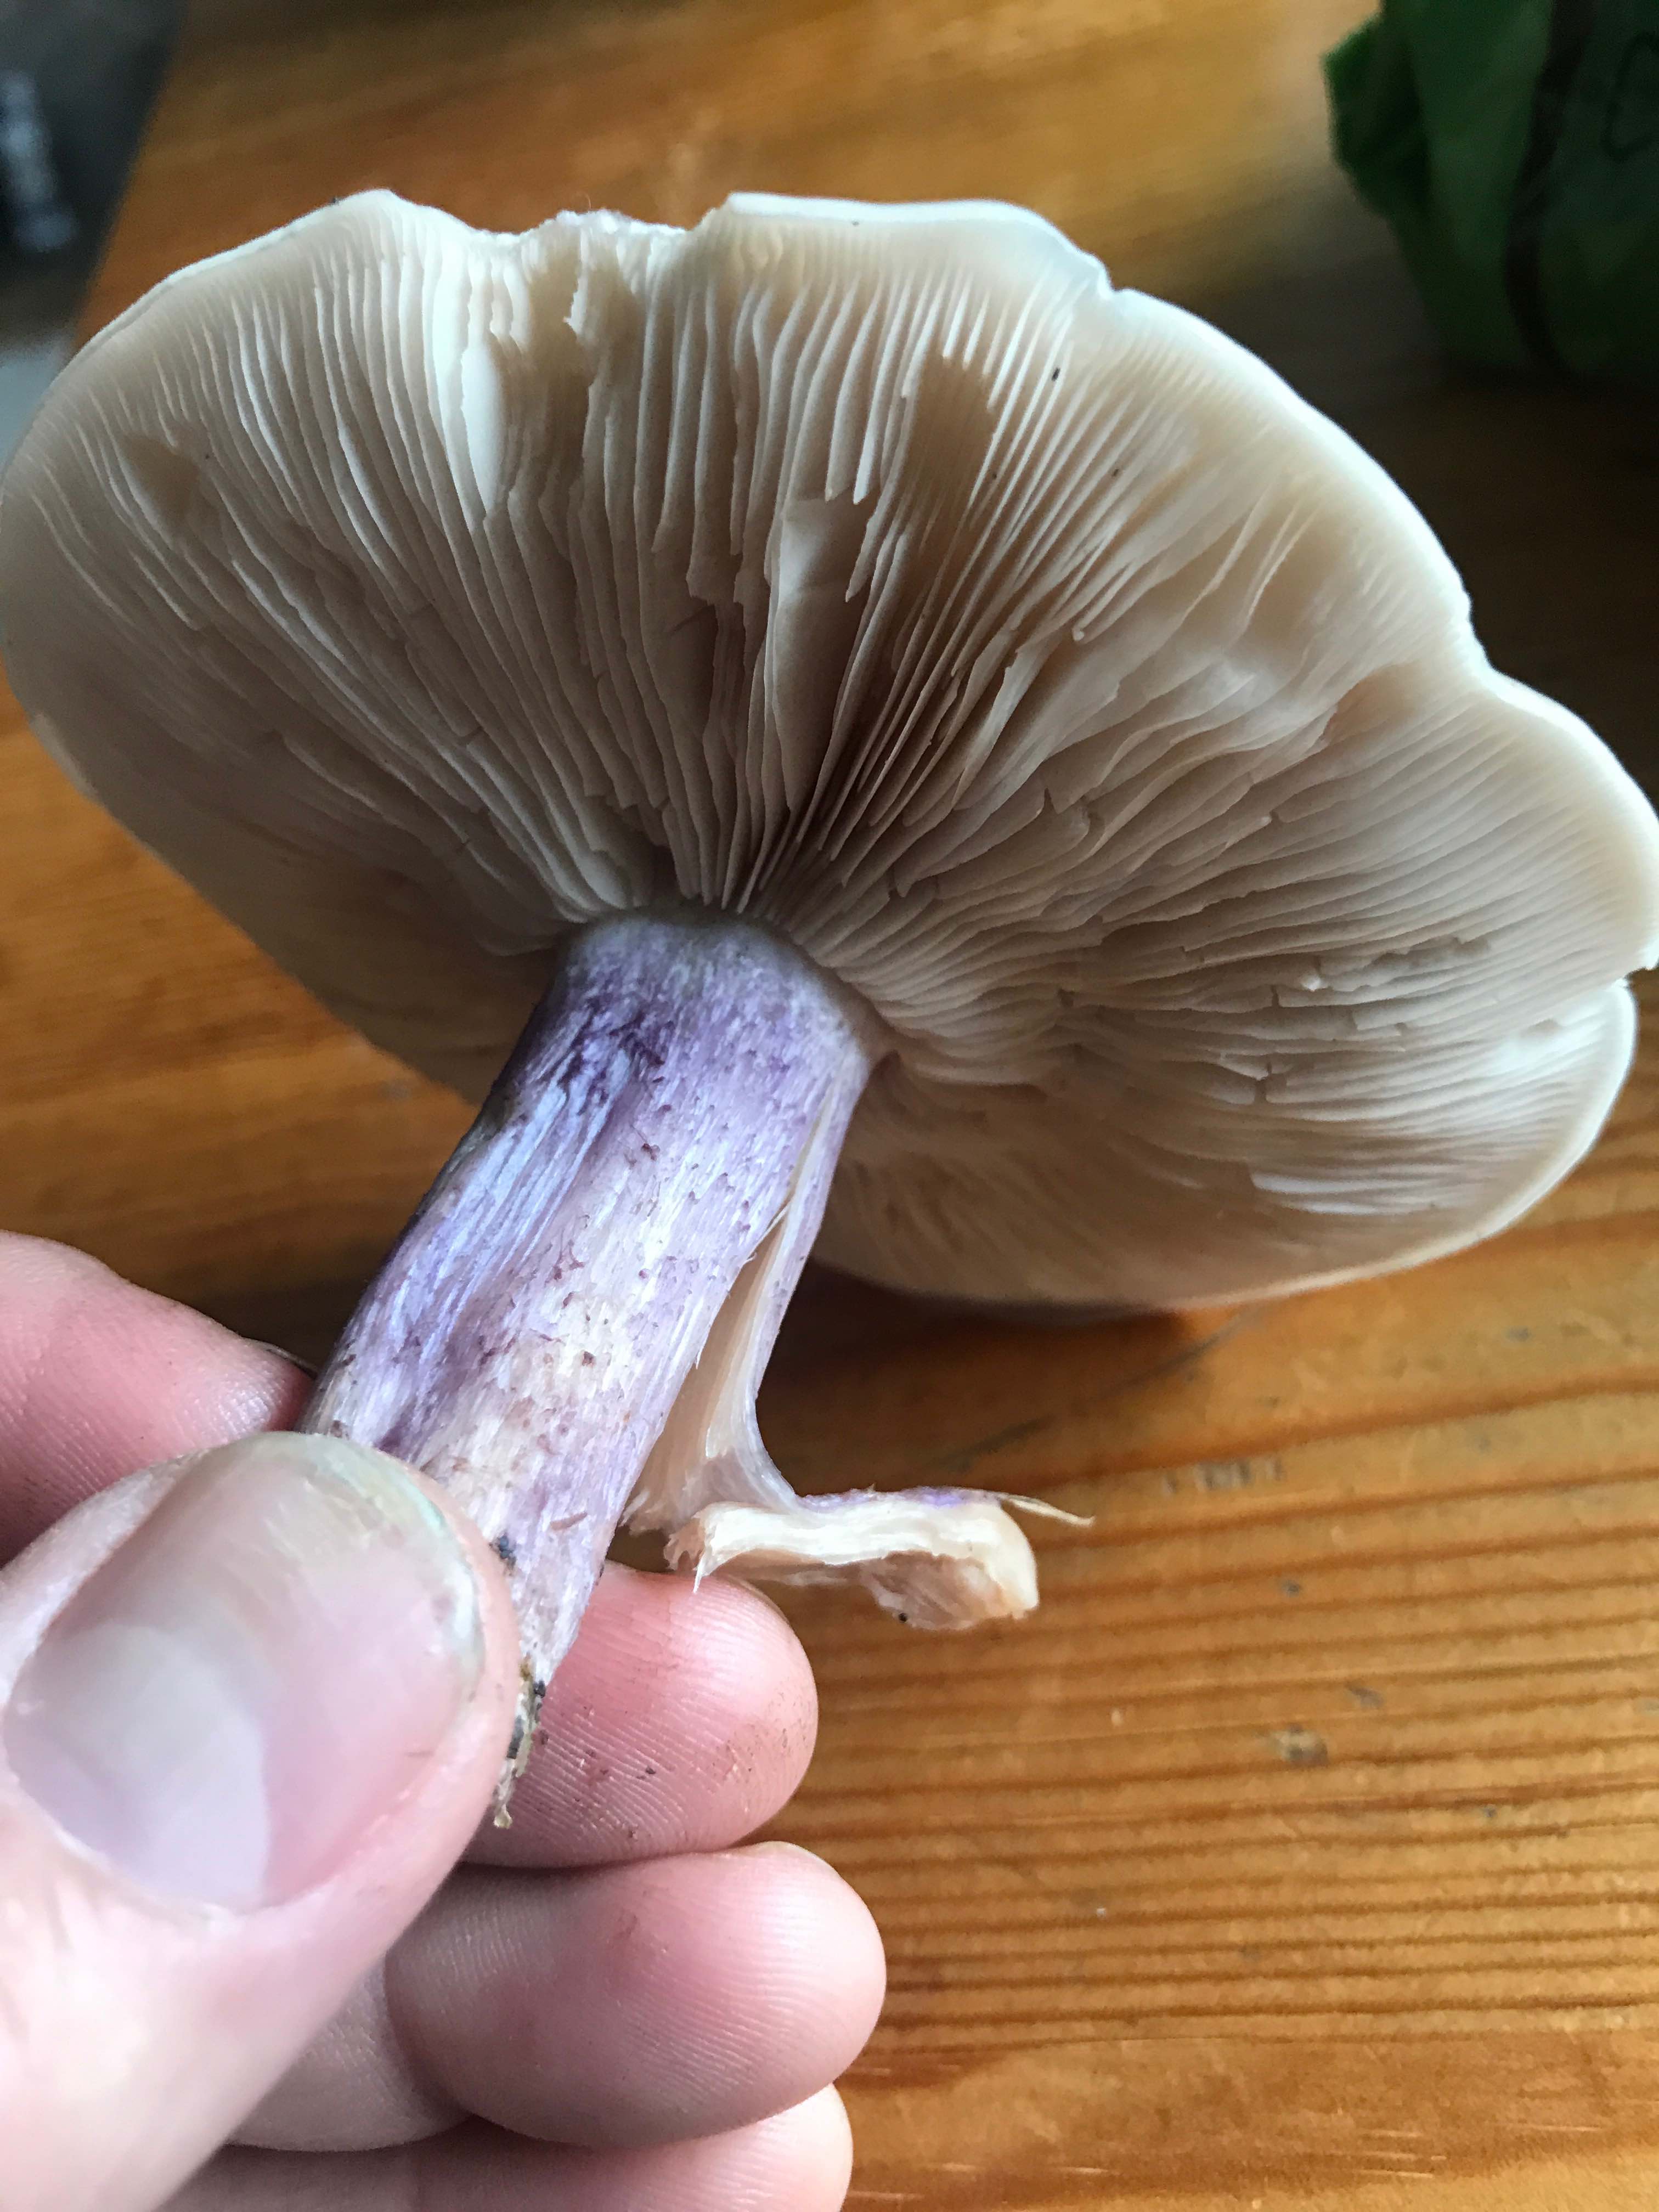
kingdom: Fungi
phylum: Basidiomycota
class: Agaricomycetes
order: Agaricales
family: Tricholomataceae
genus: Lepista
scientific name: Lepista personata
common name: bleg hekseringshat
